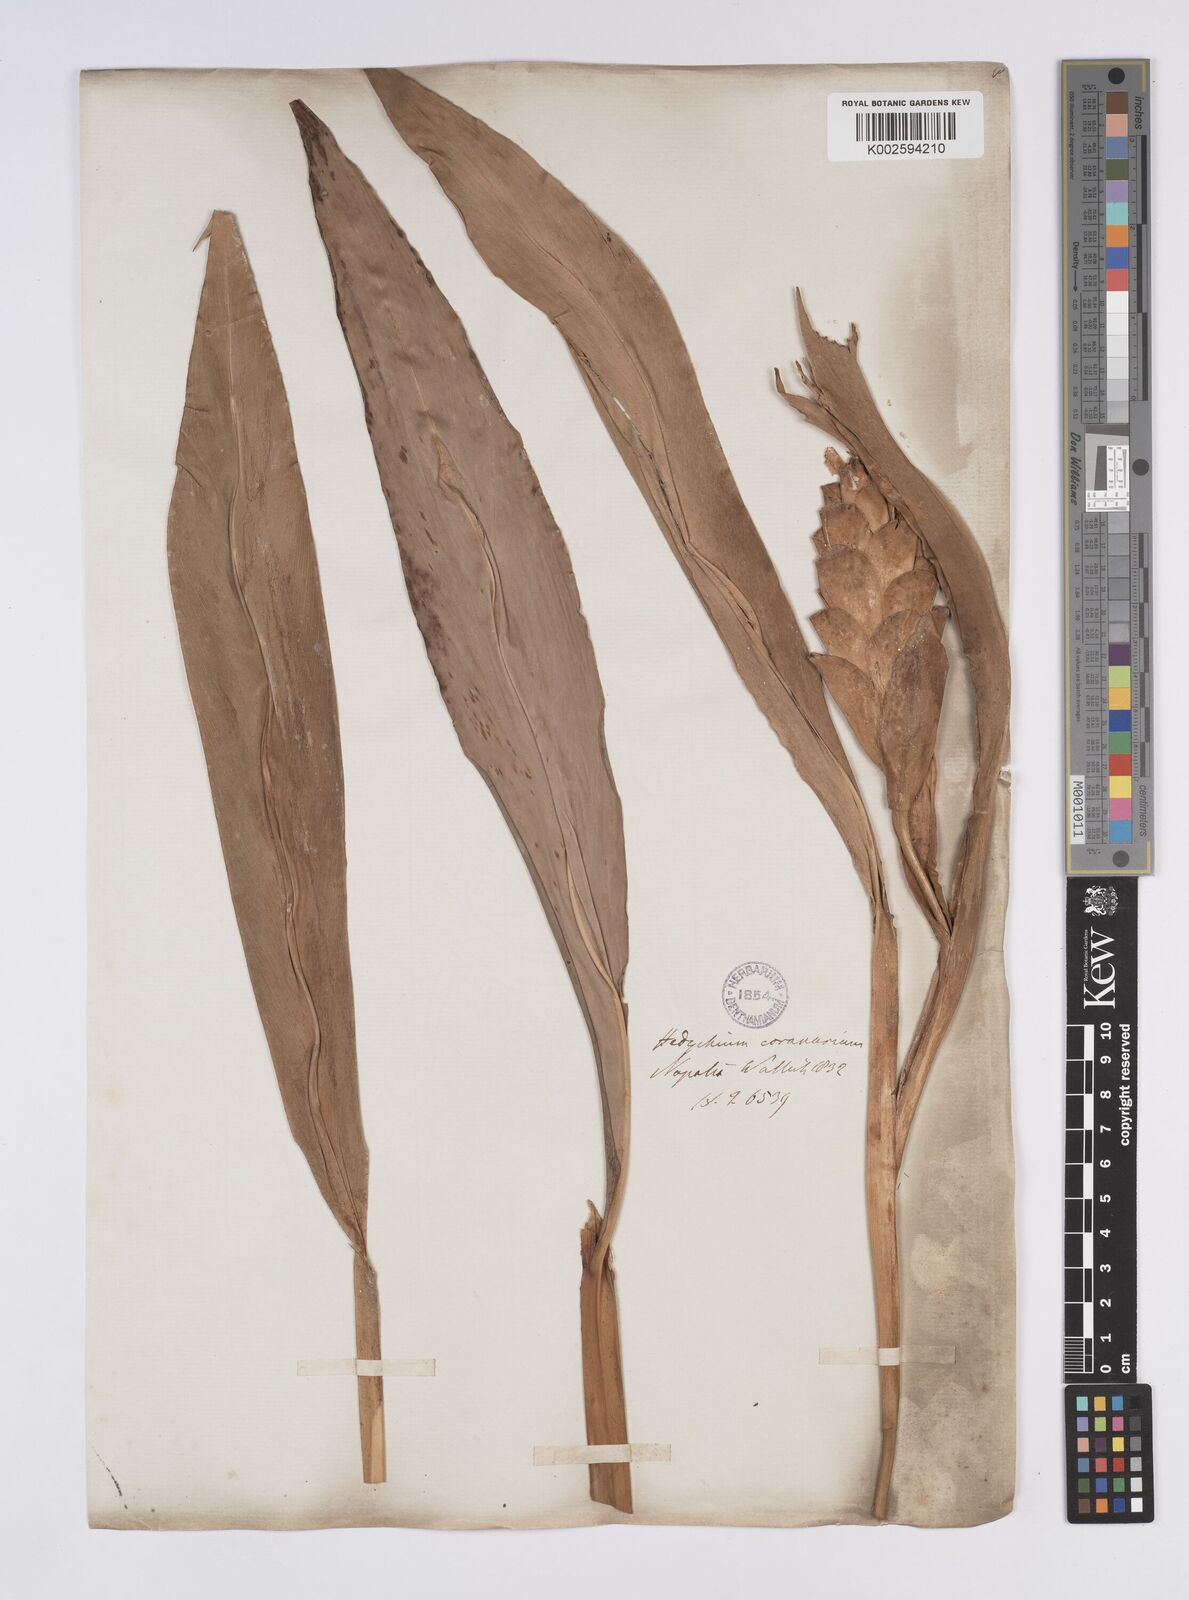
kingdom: Plantae
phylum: Tracheophyta
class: Liliopsida
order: Zingiberales
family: Zingiberaceae
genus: Hedychium
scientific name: Hedychium
